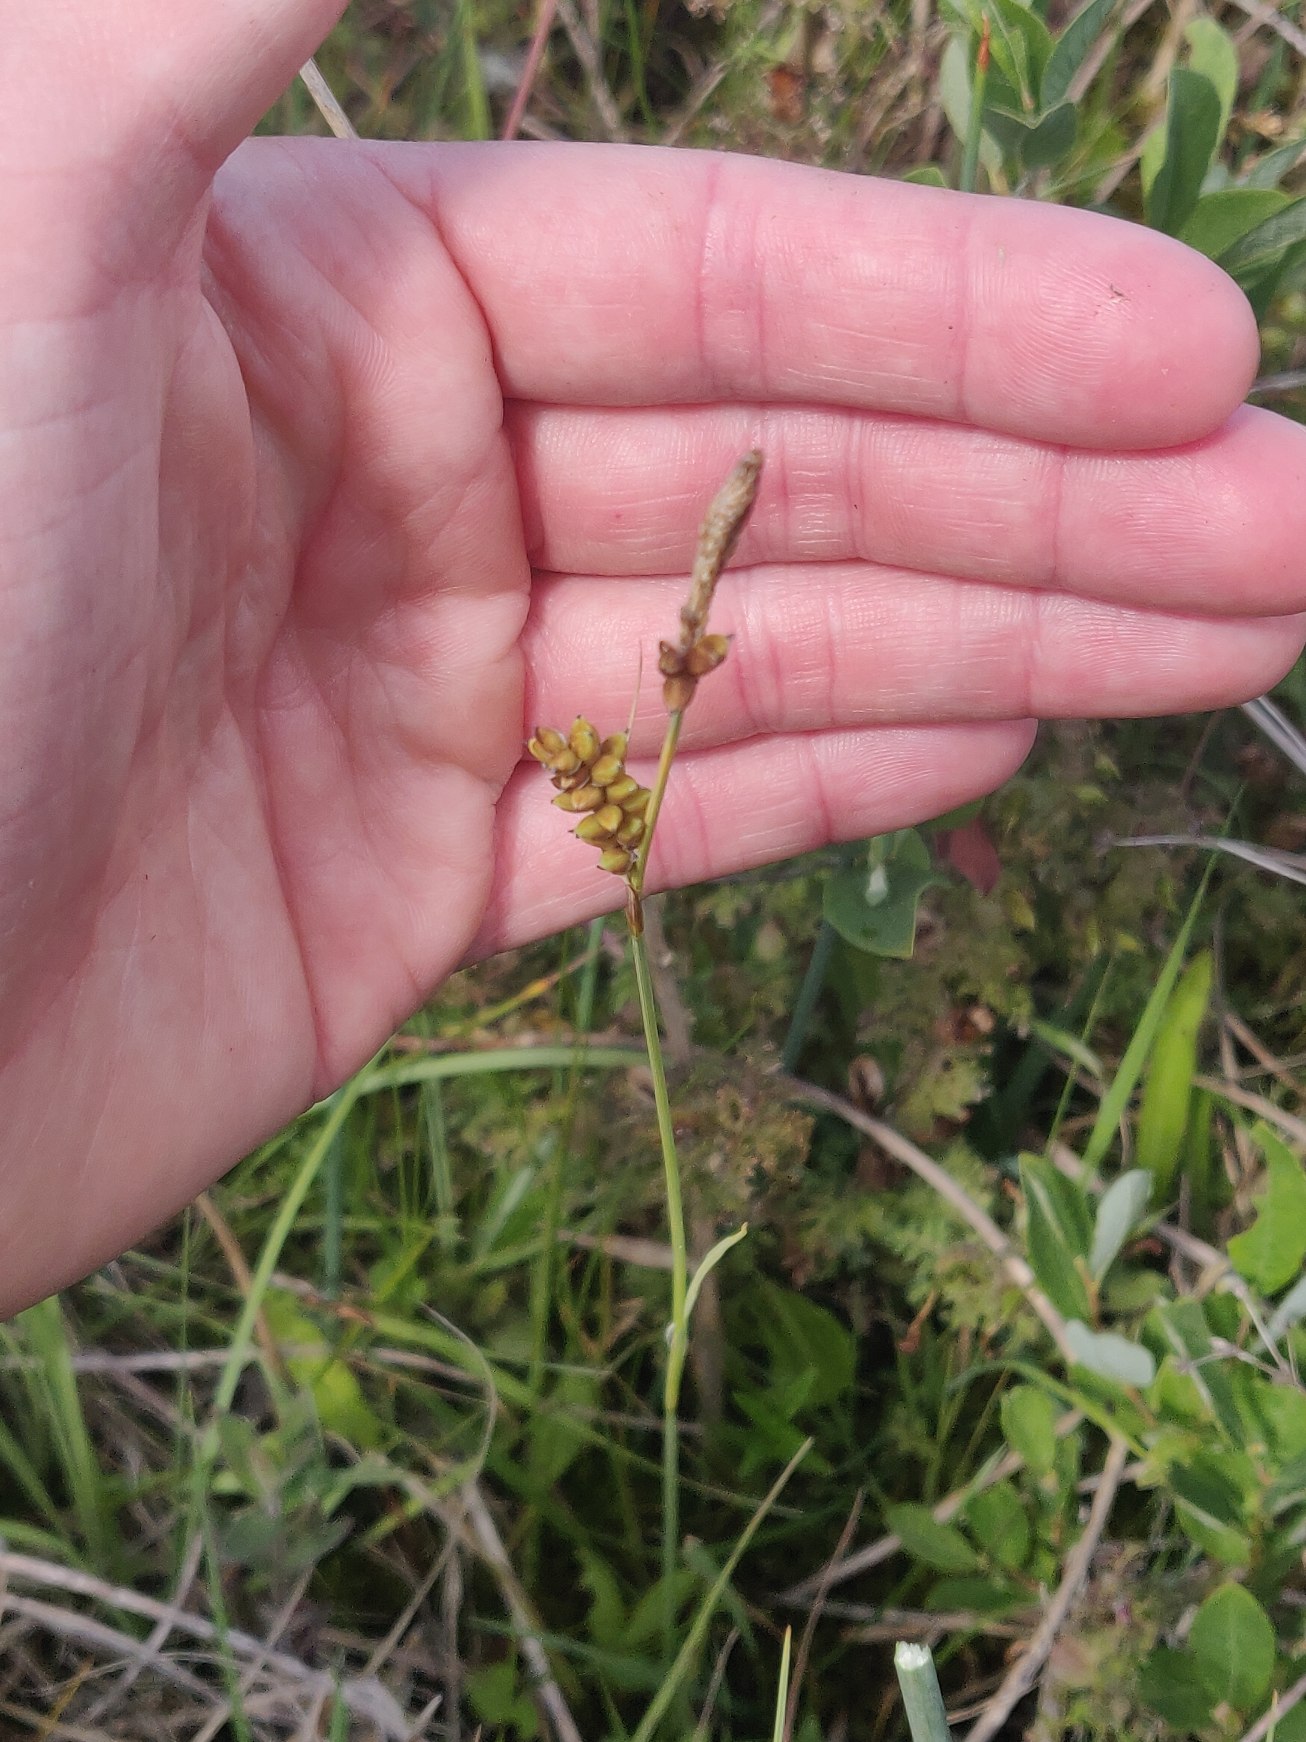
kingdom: Plantae
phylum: Tracheophyta
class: Liliopsida
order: Poales
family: Cyperaceae
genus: Carex
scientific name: Carex panicea
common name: Hirse-star
